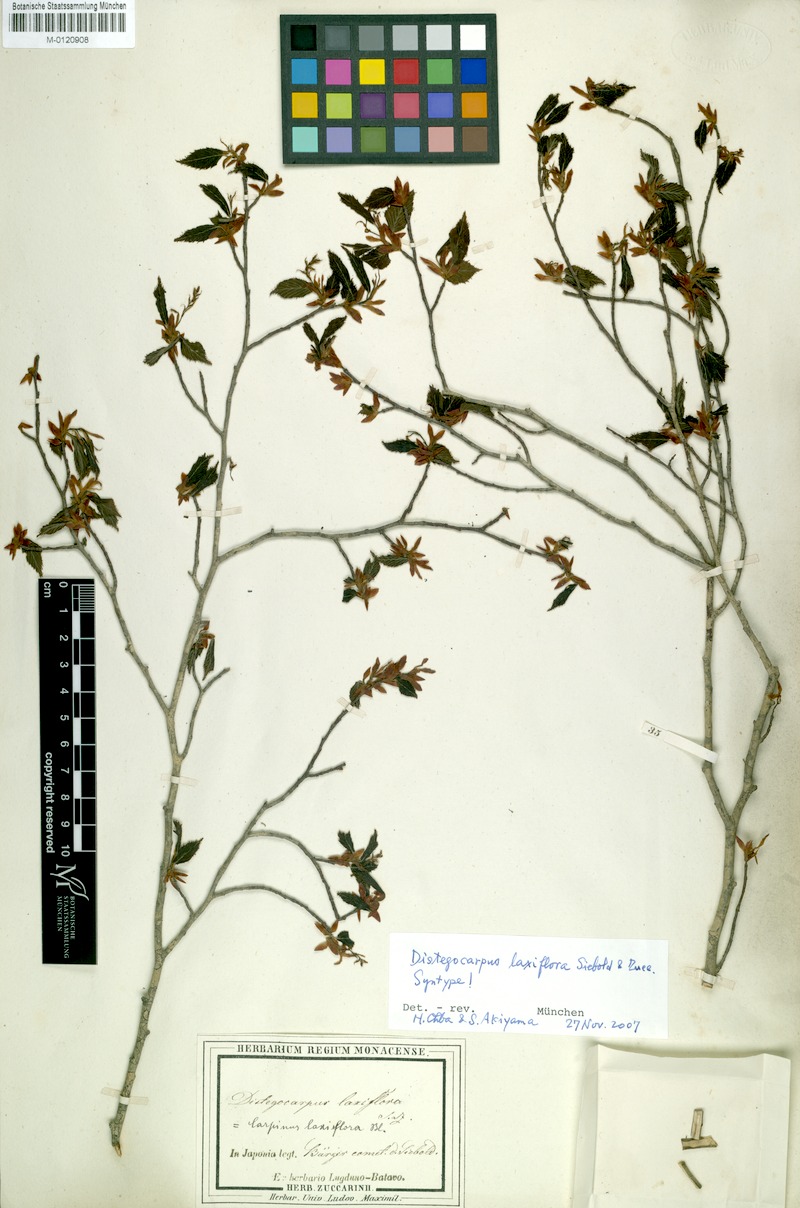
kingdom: Plantae
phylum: Tracheophyta
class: Magnoliopsida
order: Fagales
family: Betulaceae
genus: Carpinus
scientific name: Carpinus laxiflora
